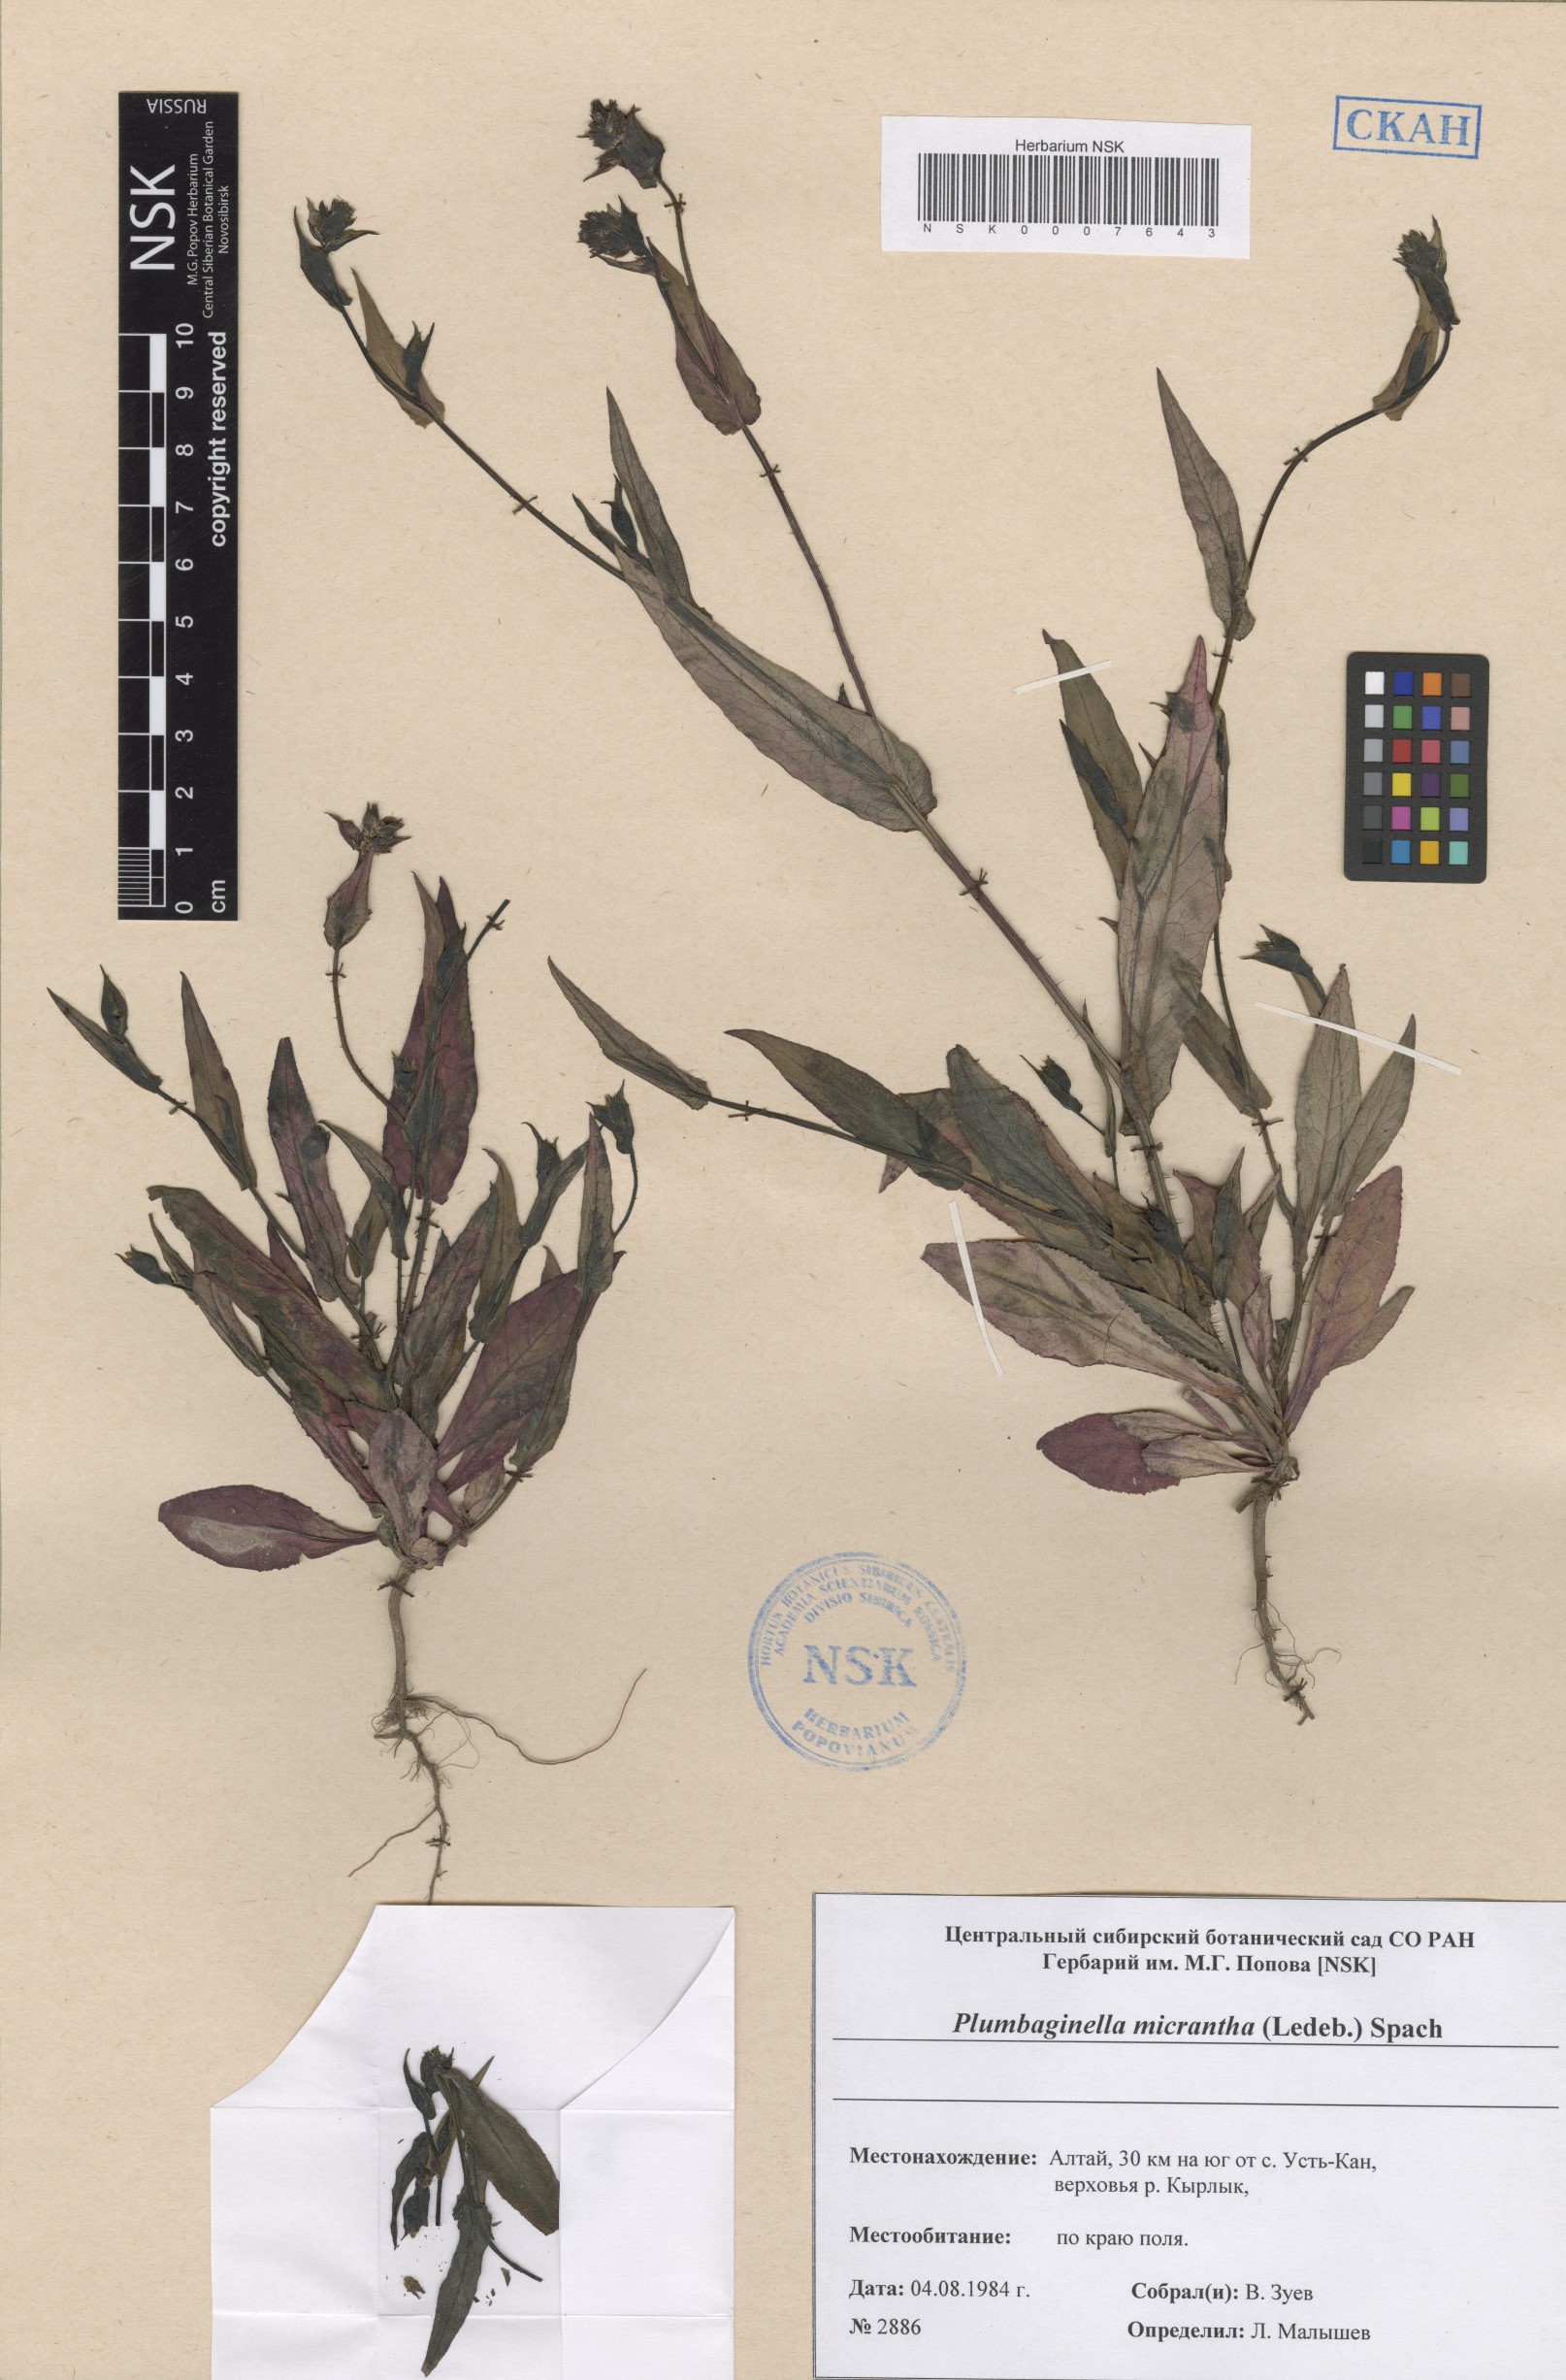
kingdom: Plantae
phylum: Tracheophyta
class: Magnoliopsida
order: Caryophyllales
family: Plumbaginaceae
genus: Plumbagella
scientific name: Plumbagella micrantha
